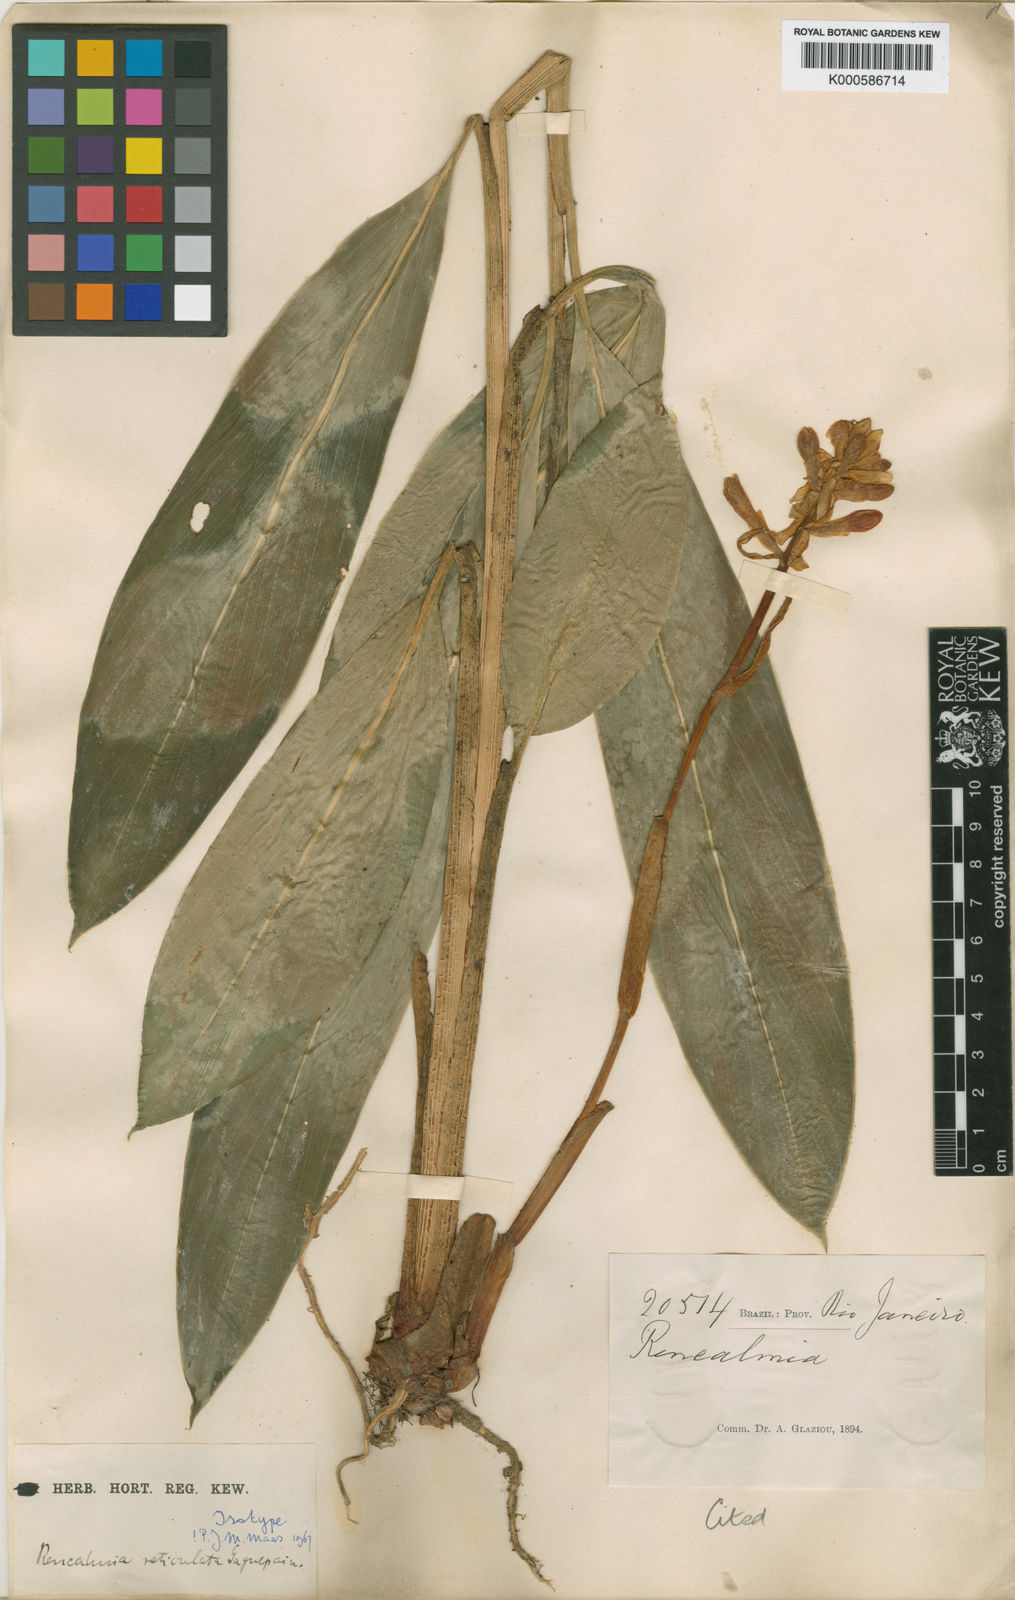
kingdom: Plantae
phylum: Tracheophyta
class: Liliopsida
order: Zingiberales
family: Zingiberaceae
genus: Renealmia
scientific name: Renealmia chrysotricha
